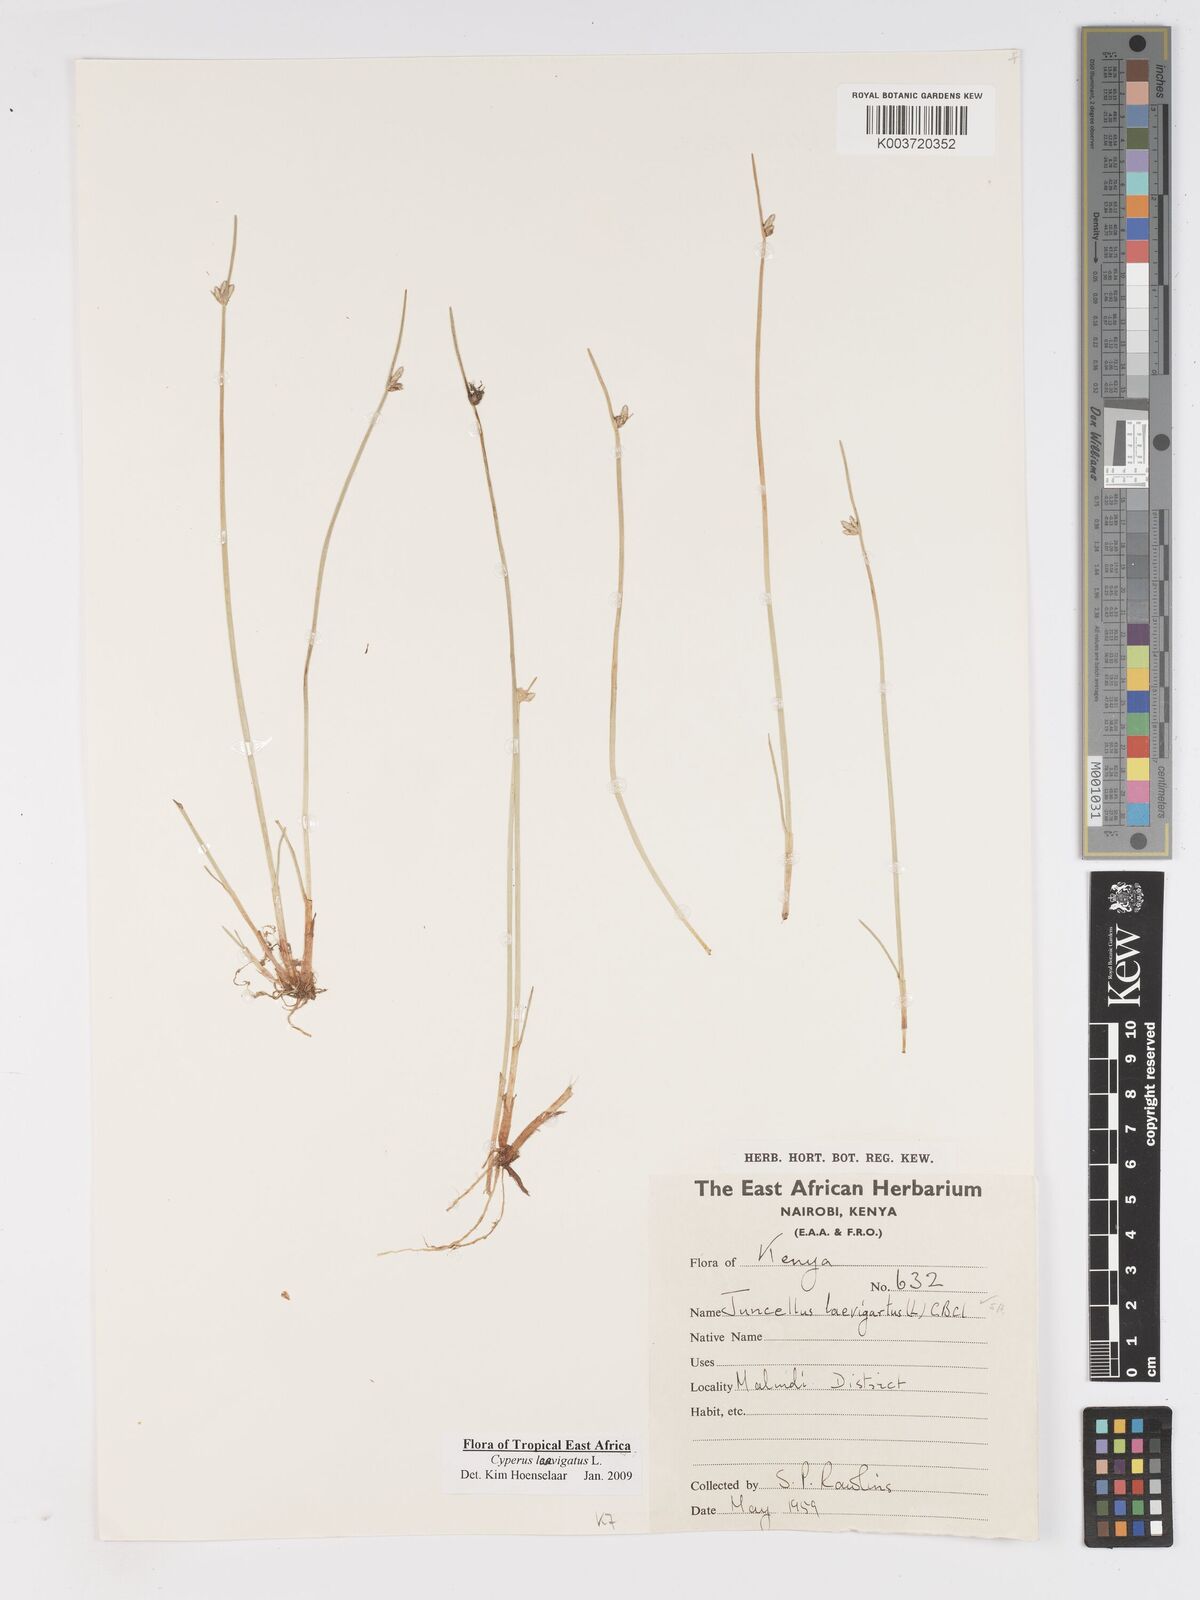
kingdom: Plantae
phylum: Tracheophyta
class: Liliopsida
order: Poales
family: Cyperaceae
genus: Cyperus
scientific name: Cyperus laevigatus
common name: Smooth flat sedge
